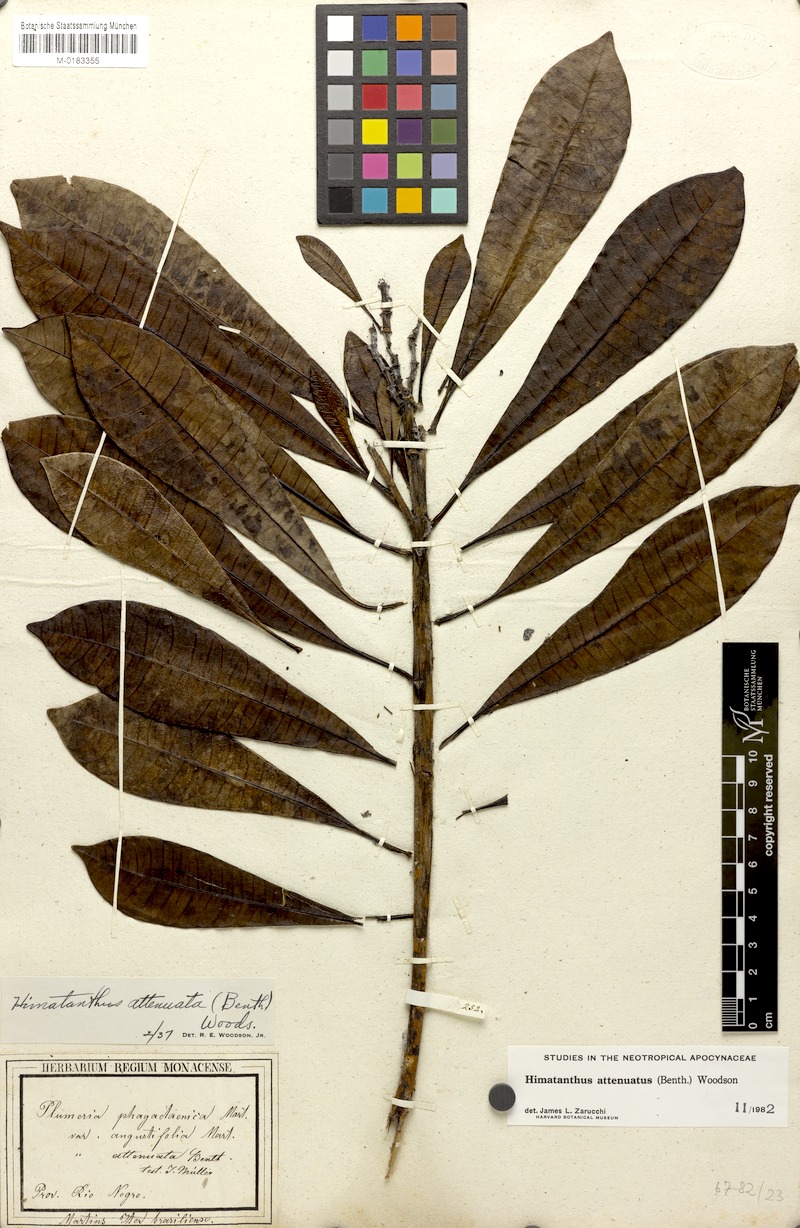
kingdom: Plantae
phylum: Tracheophyta
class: Magnoliopsida
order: Gentianales
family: Apocynaceae
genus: Himatanthus
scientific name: Himatanthus attenuatus
